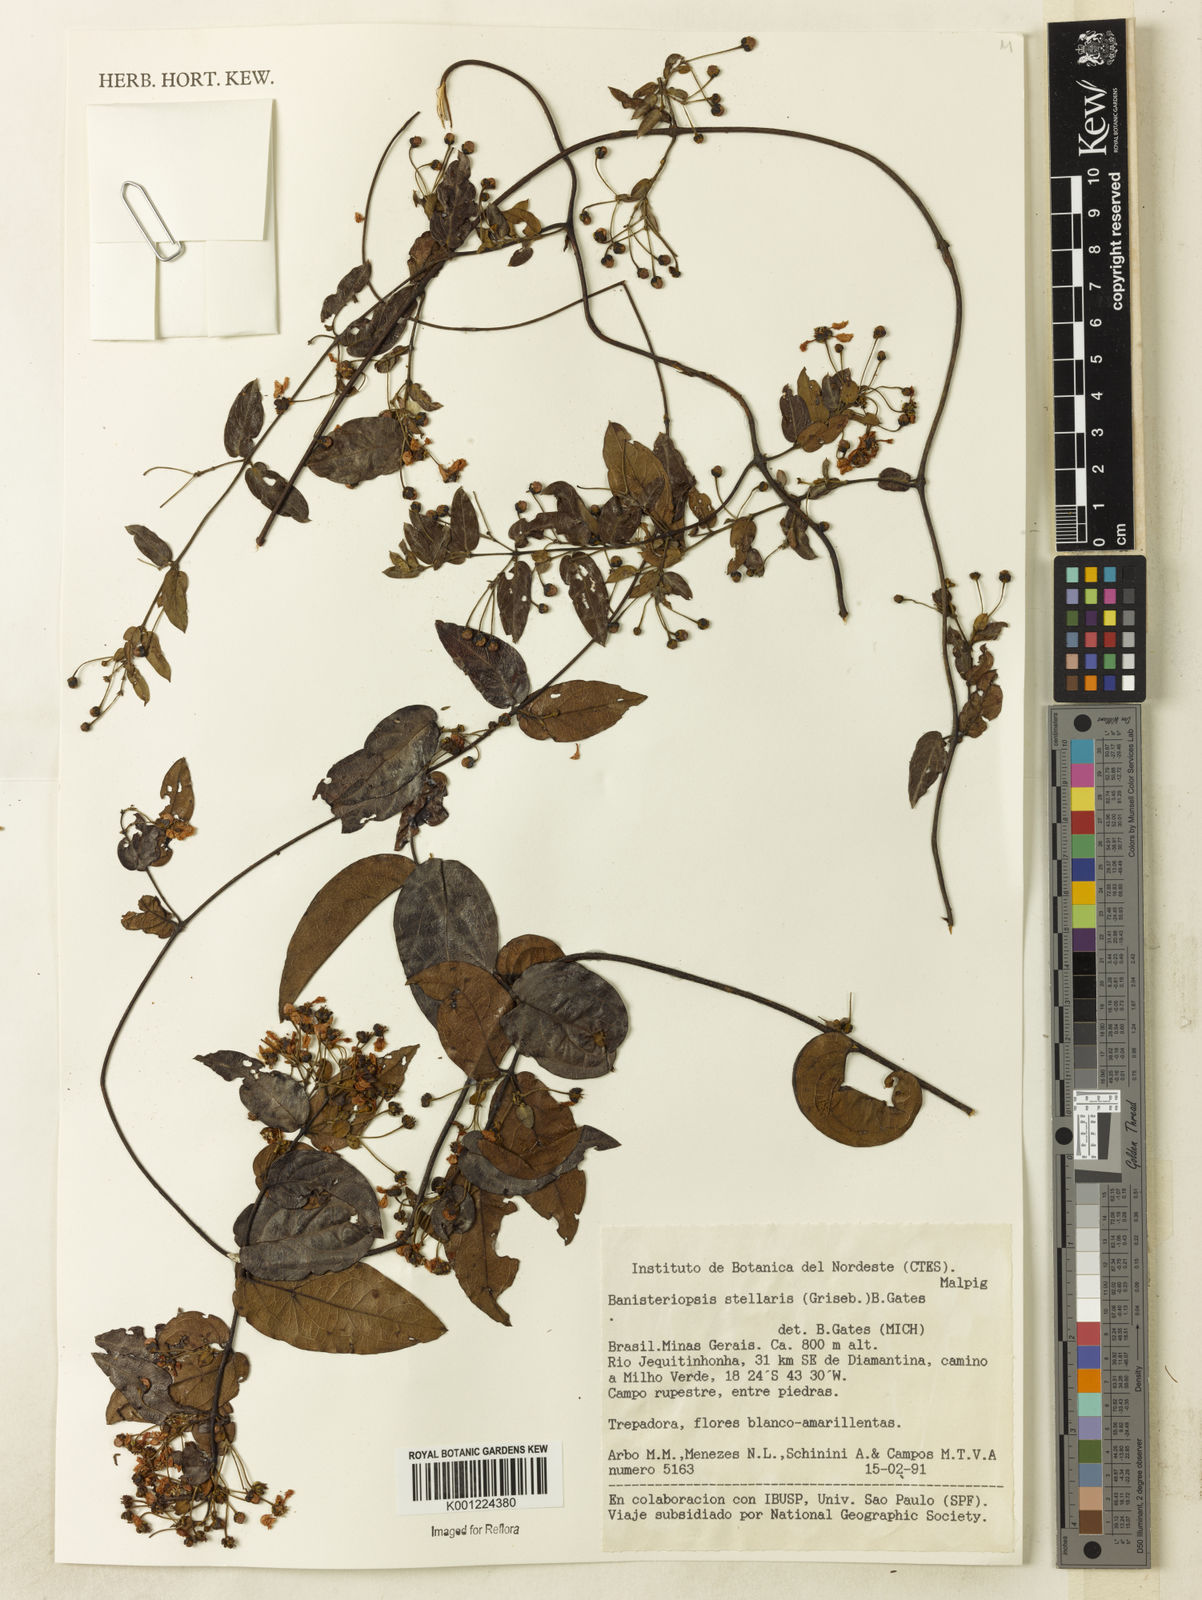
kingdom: Plantae
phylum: Tracheophyta
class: Magnoliopsida
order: Malpighiales
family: Malpighiaceae
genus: Banisteriopsis
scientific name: Banisteriopsis stellaris
